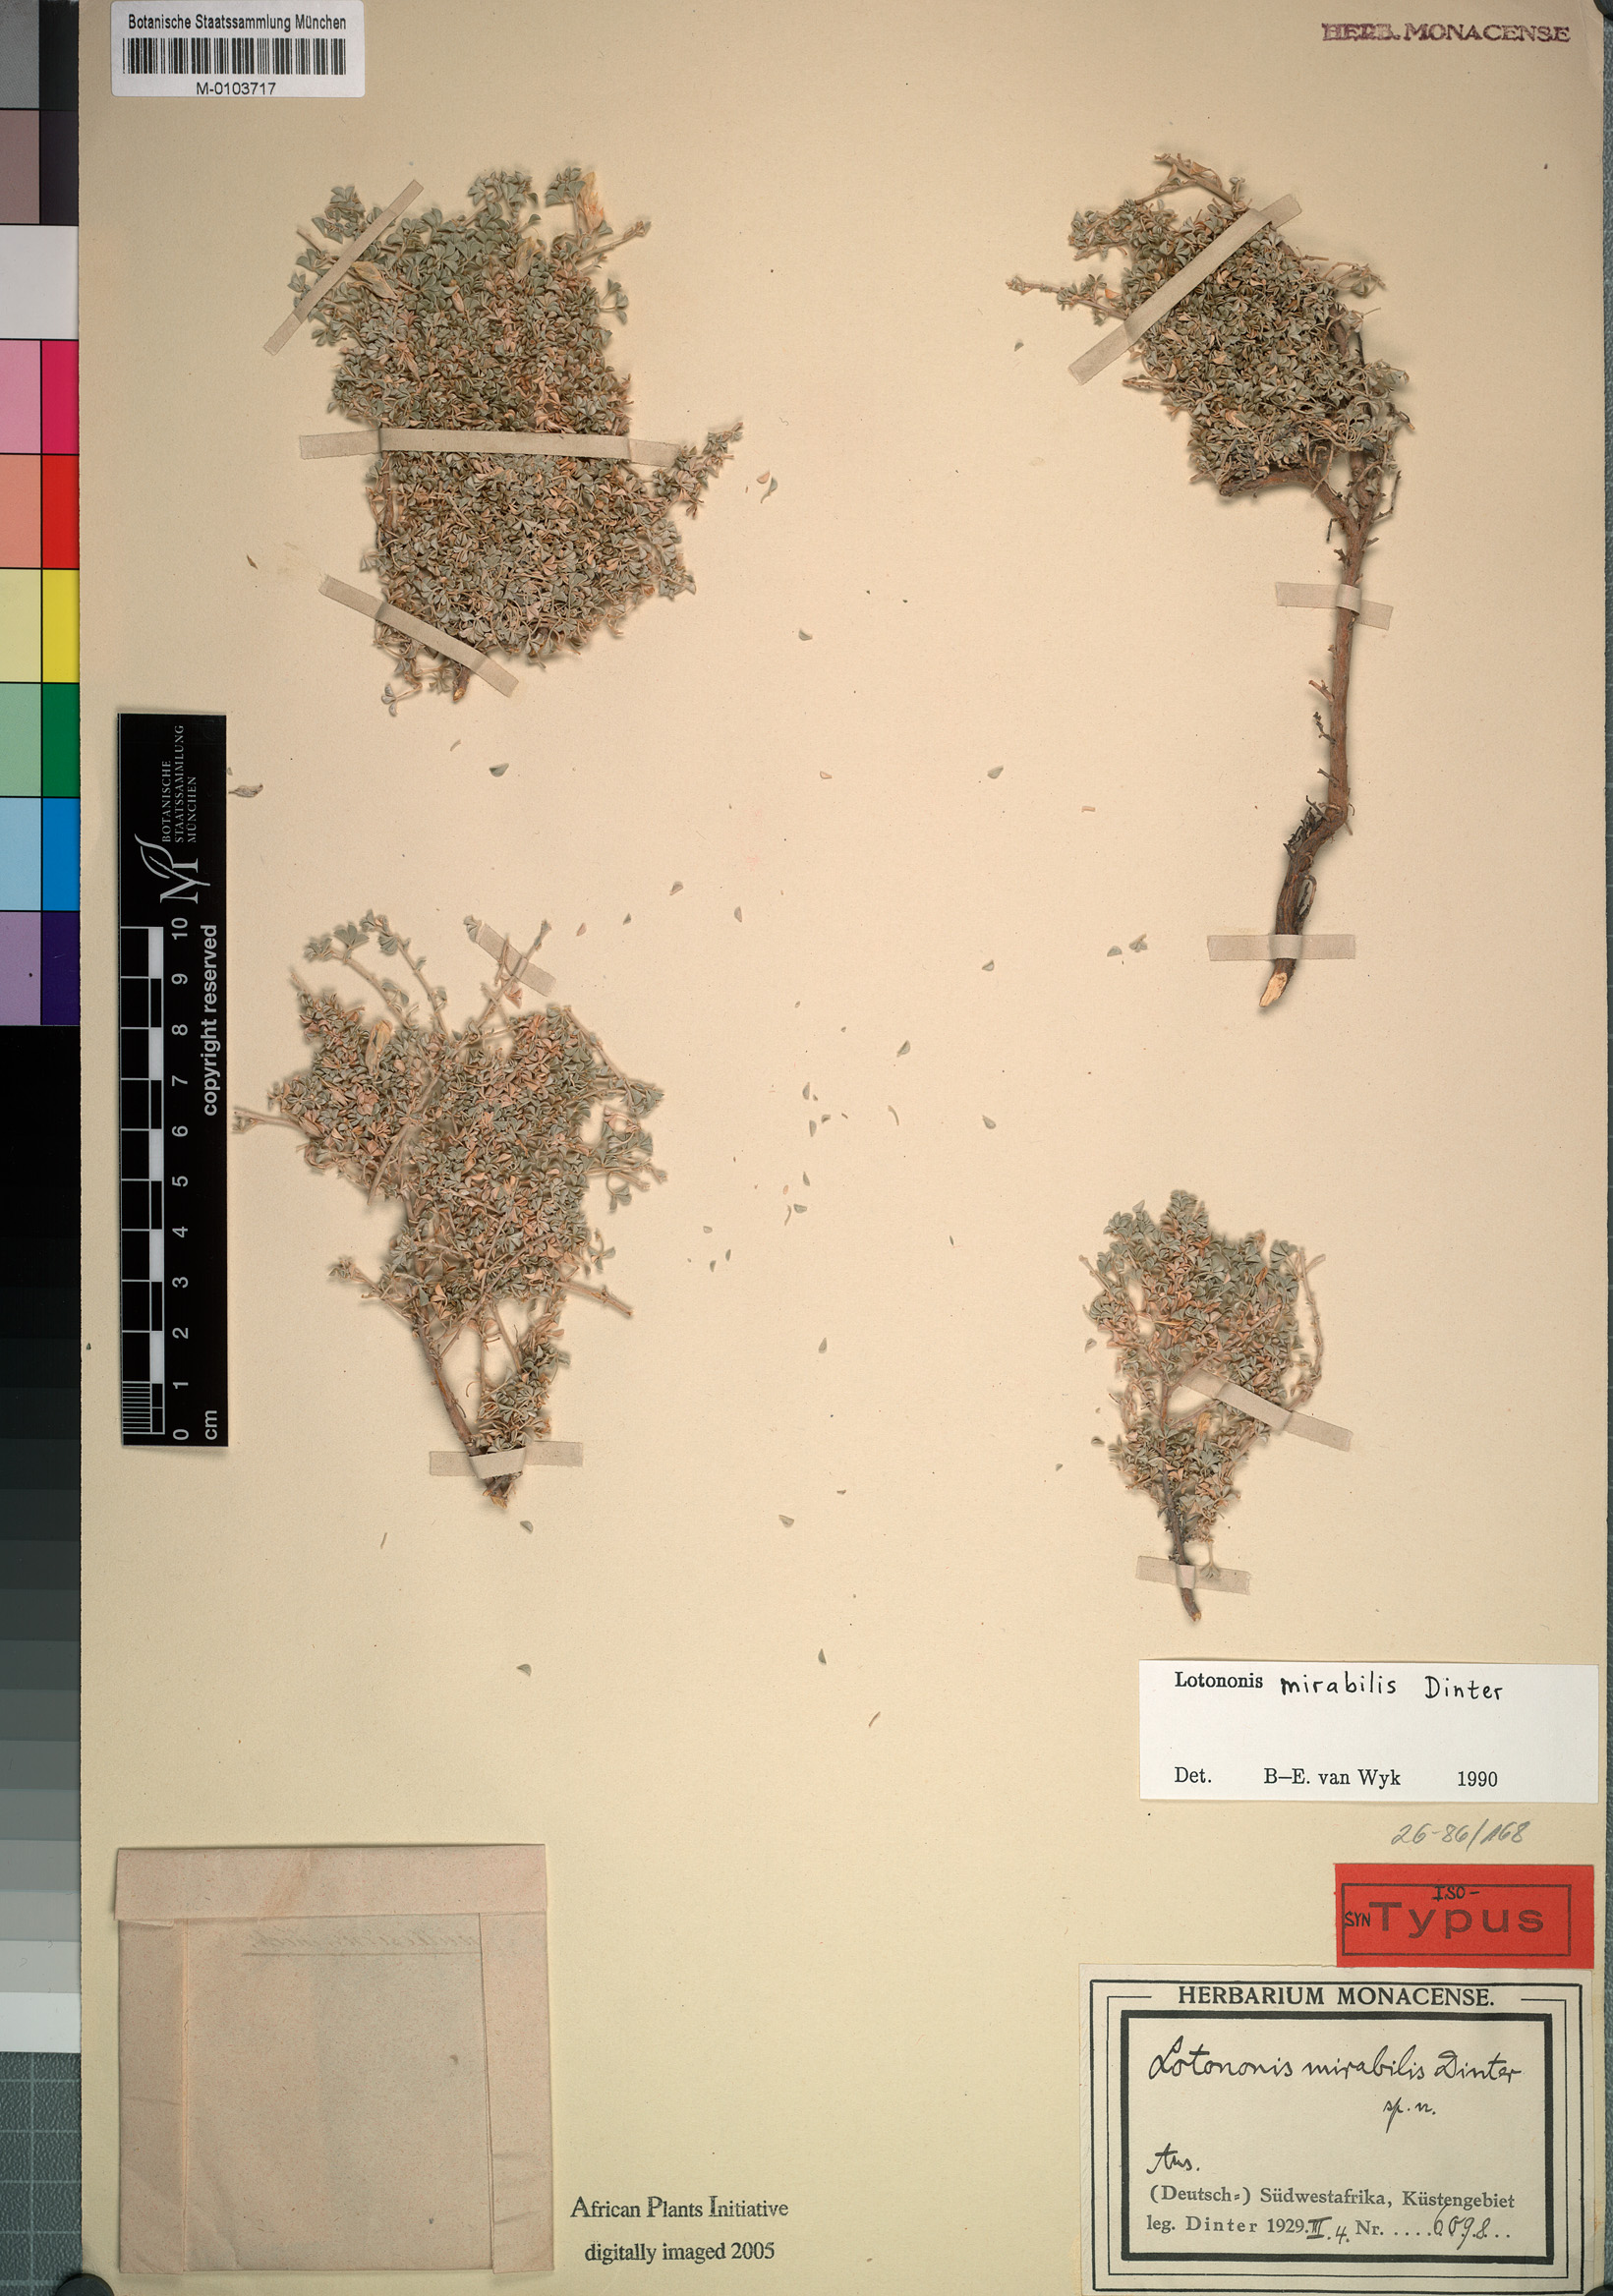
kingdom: Plantae
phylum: Tracheophyta
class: Liliopsida
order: Poales
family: Poaceae
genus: Lasiorhachis
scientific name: Lasiorhachis hildebrandtii
